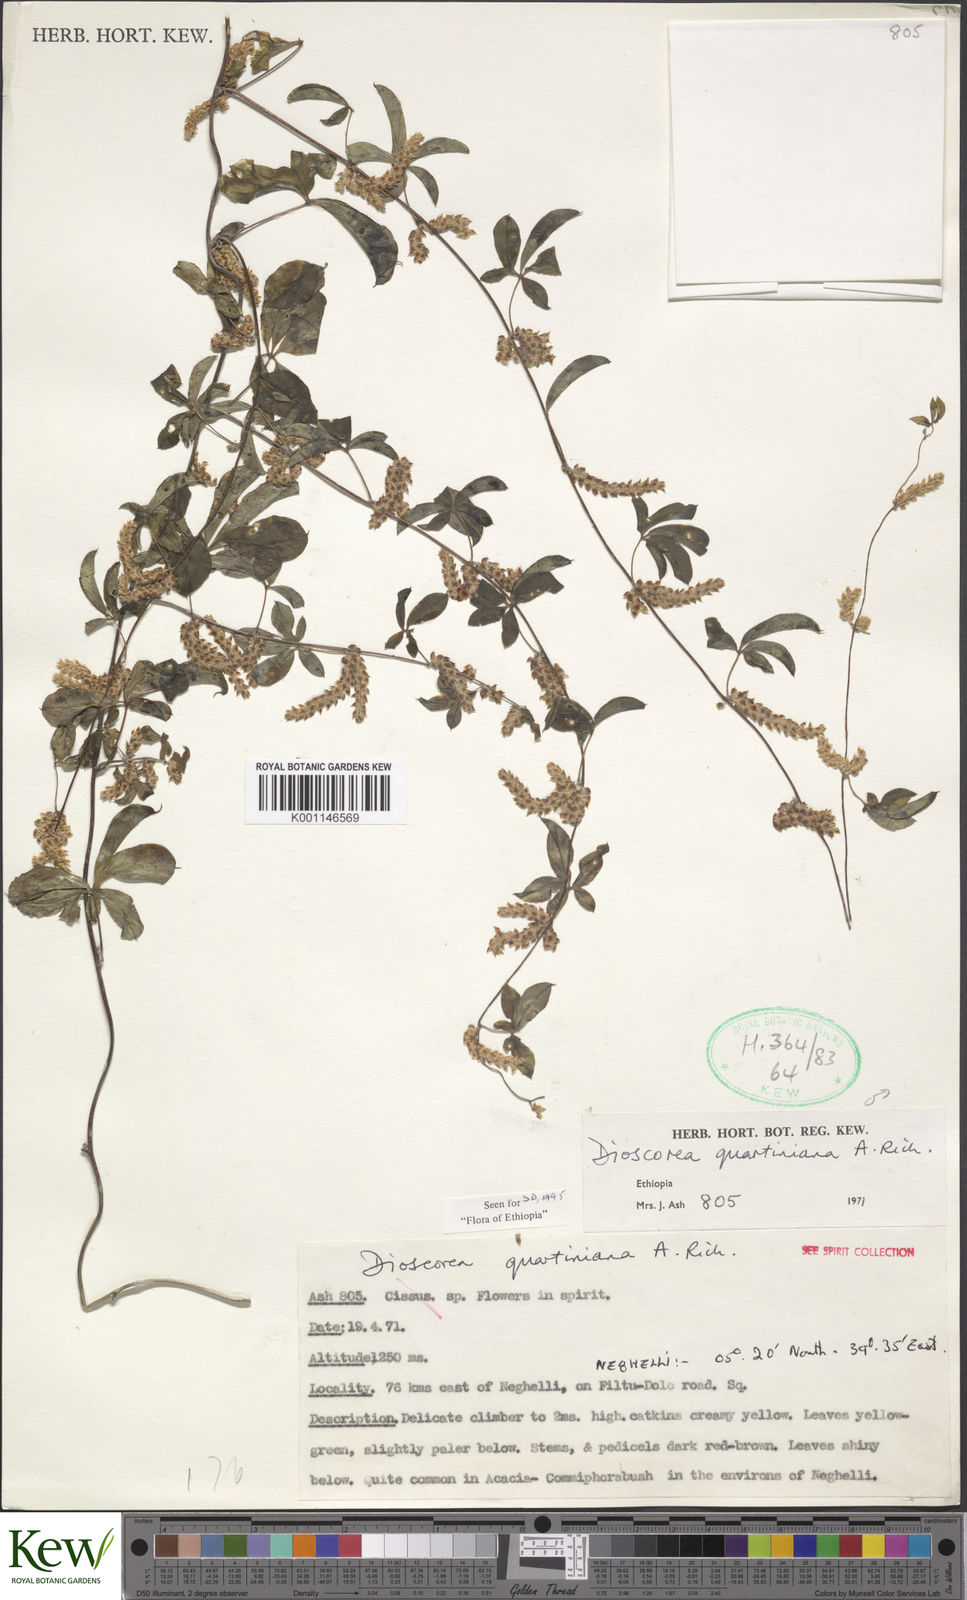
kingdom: Plantae
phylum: Tracheophyta
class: Liliopsida
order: Dioscoreales
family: Dioscoreaceae
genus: Dioscorea
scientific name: Dioscorea quartiniana
